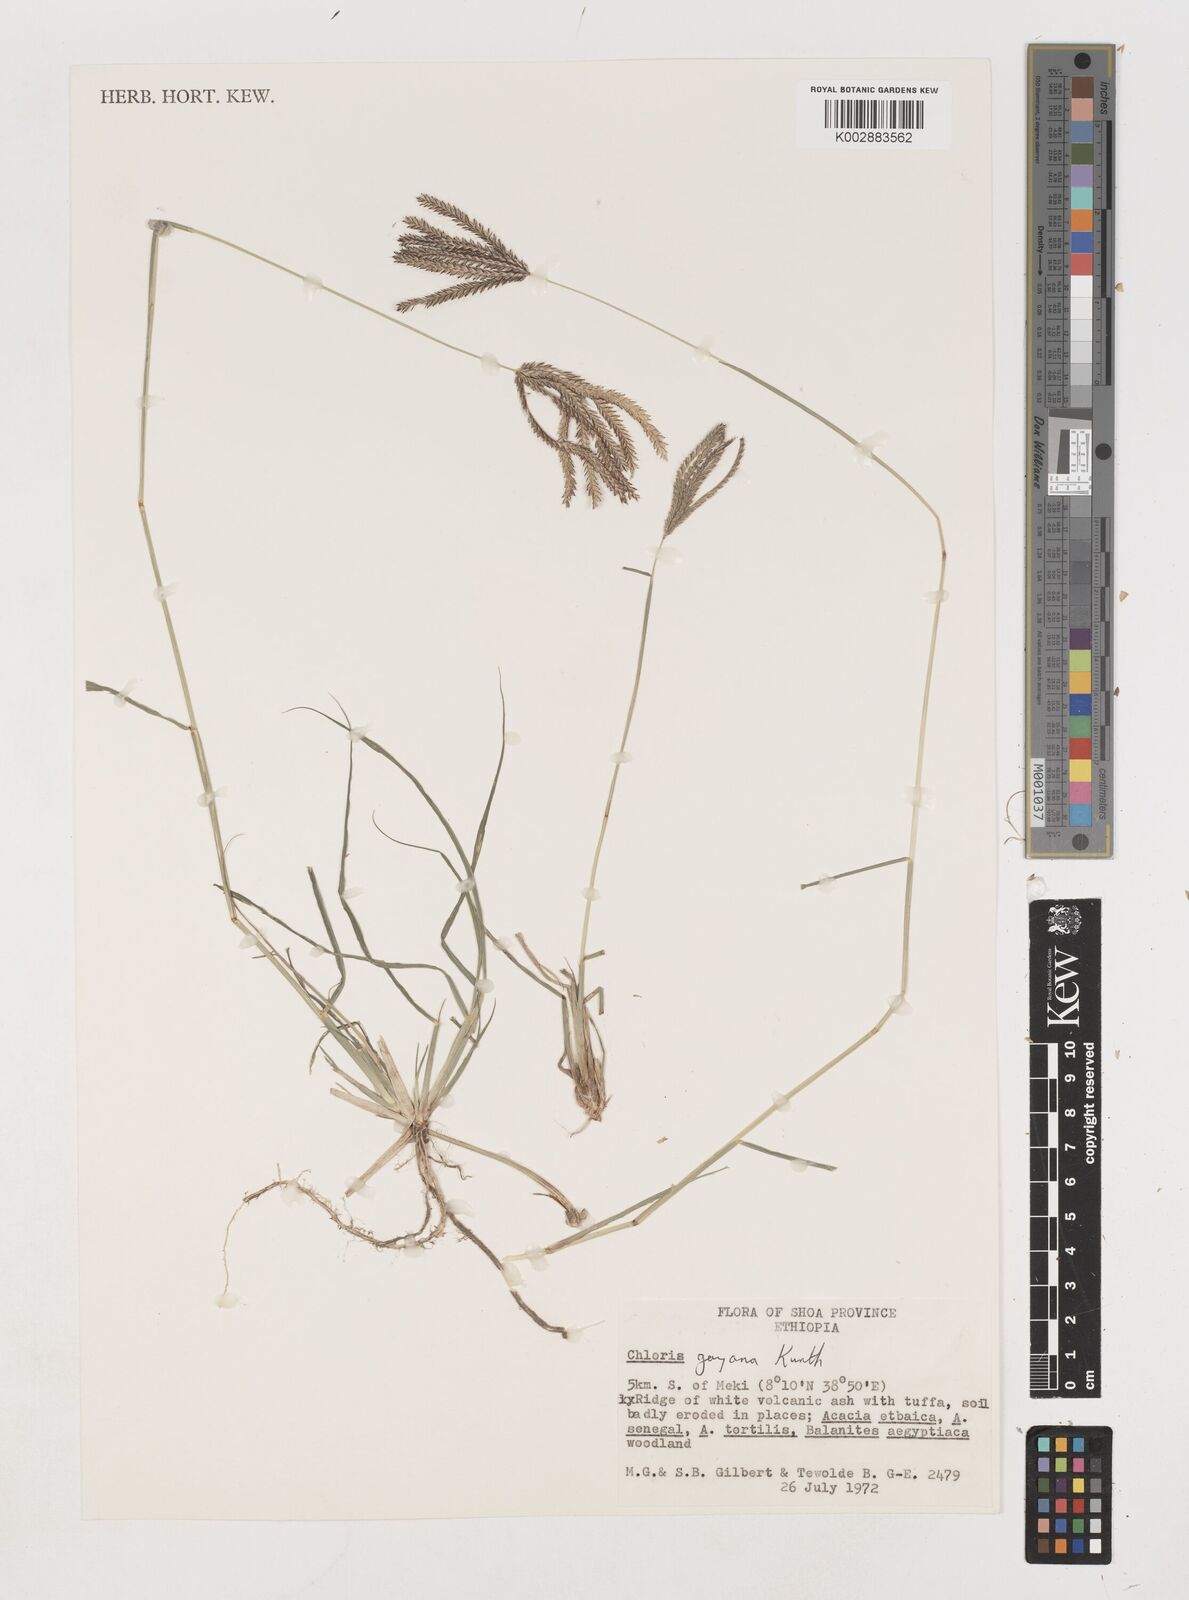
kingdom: Plantae
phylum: Tracheophyta
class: Liliopsida
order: Poales
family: Poaceae
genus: Chloris
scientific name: Chloris gayana
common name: Rhodes grass
